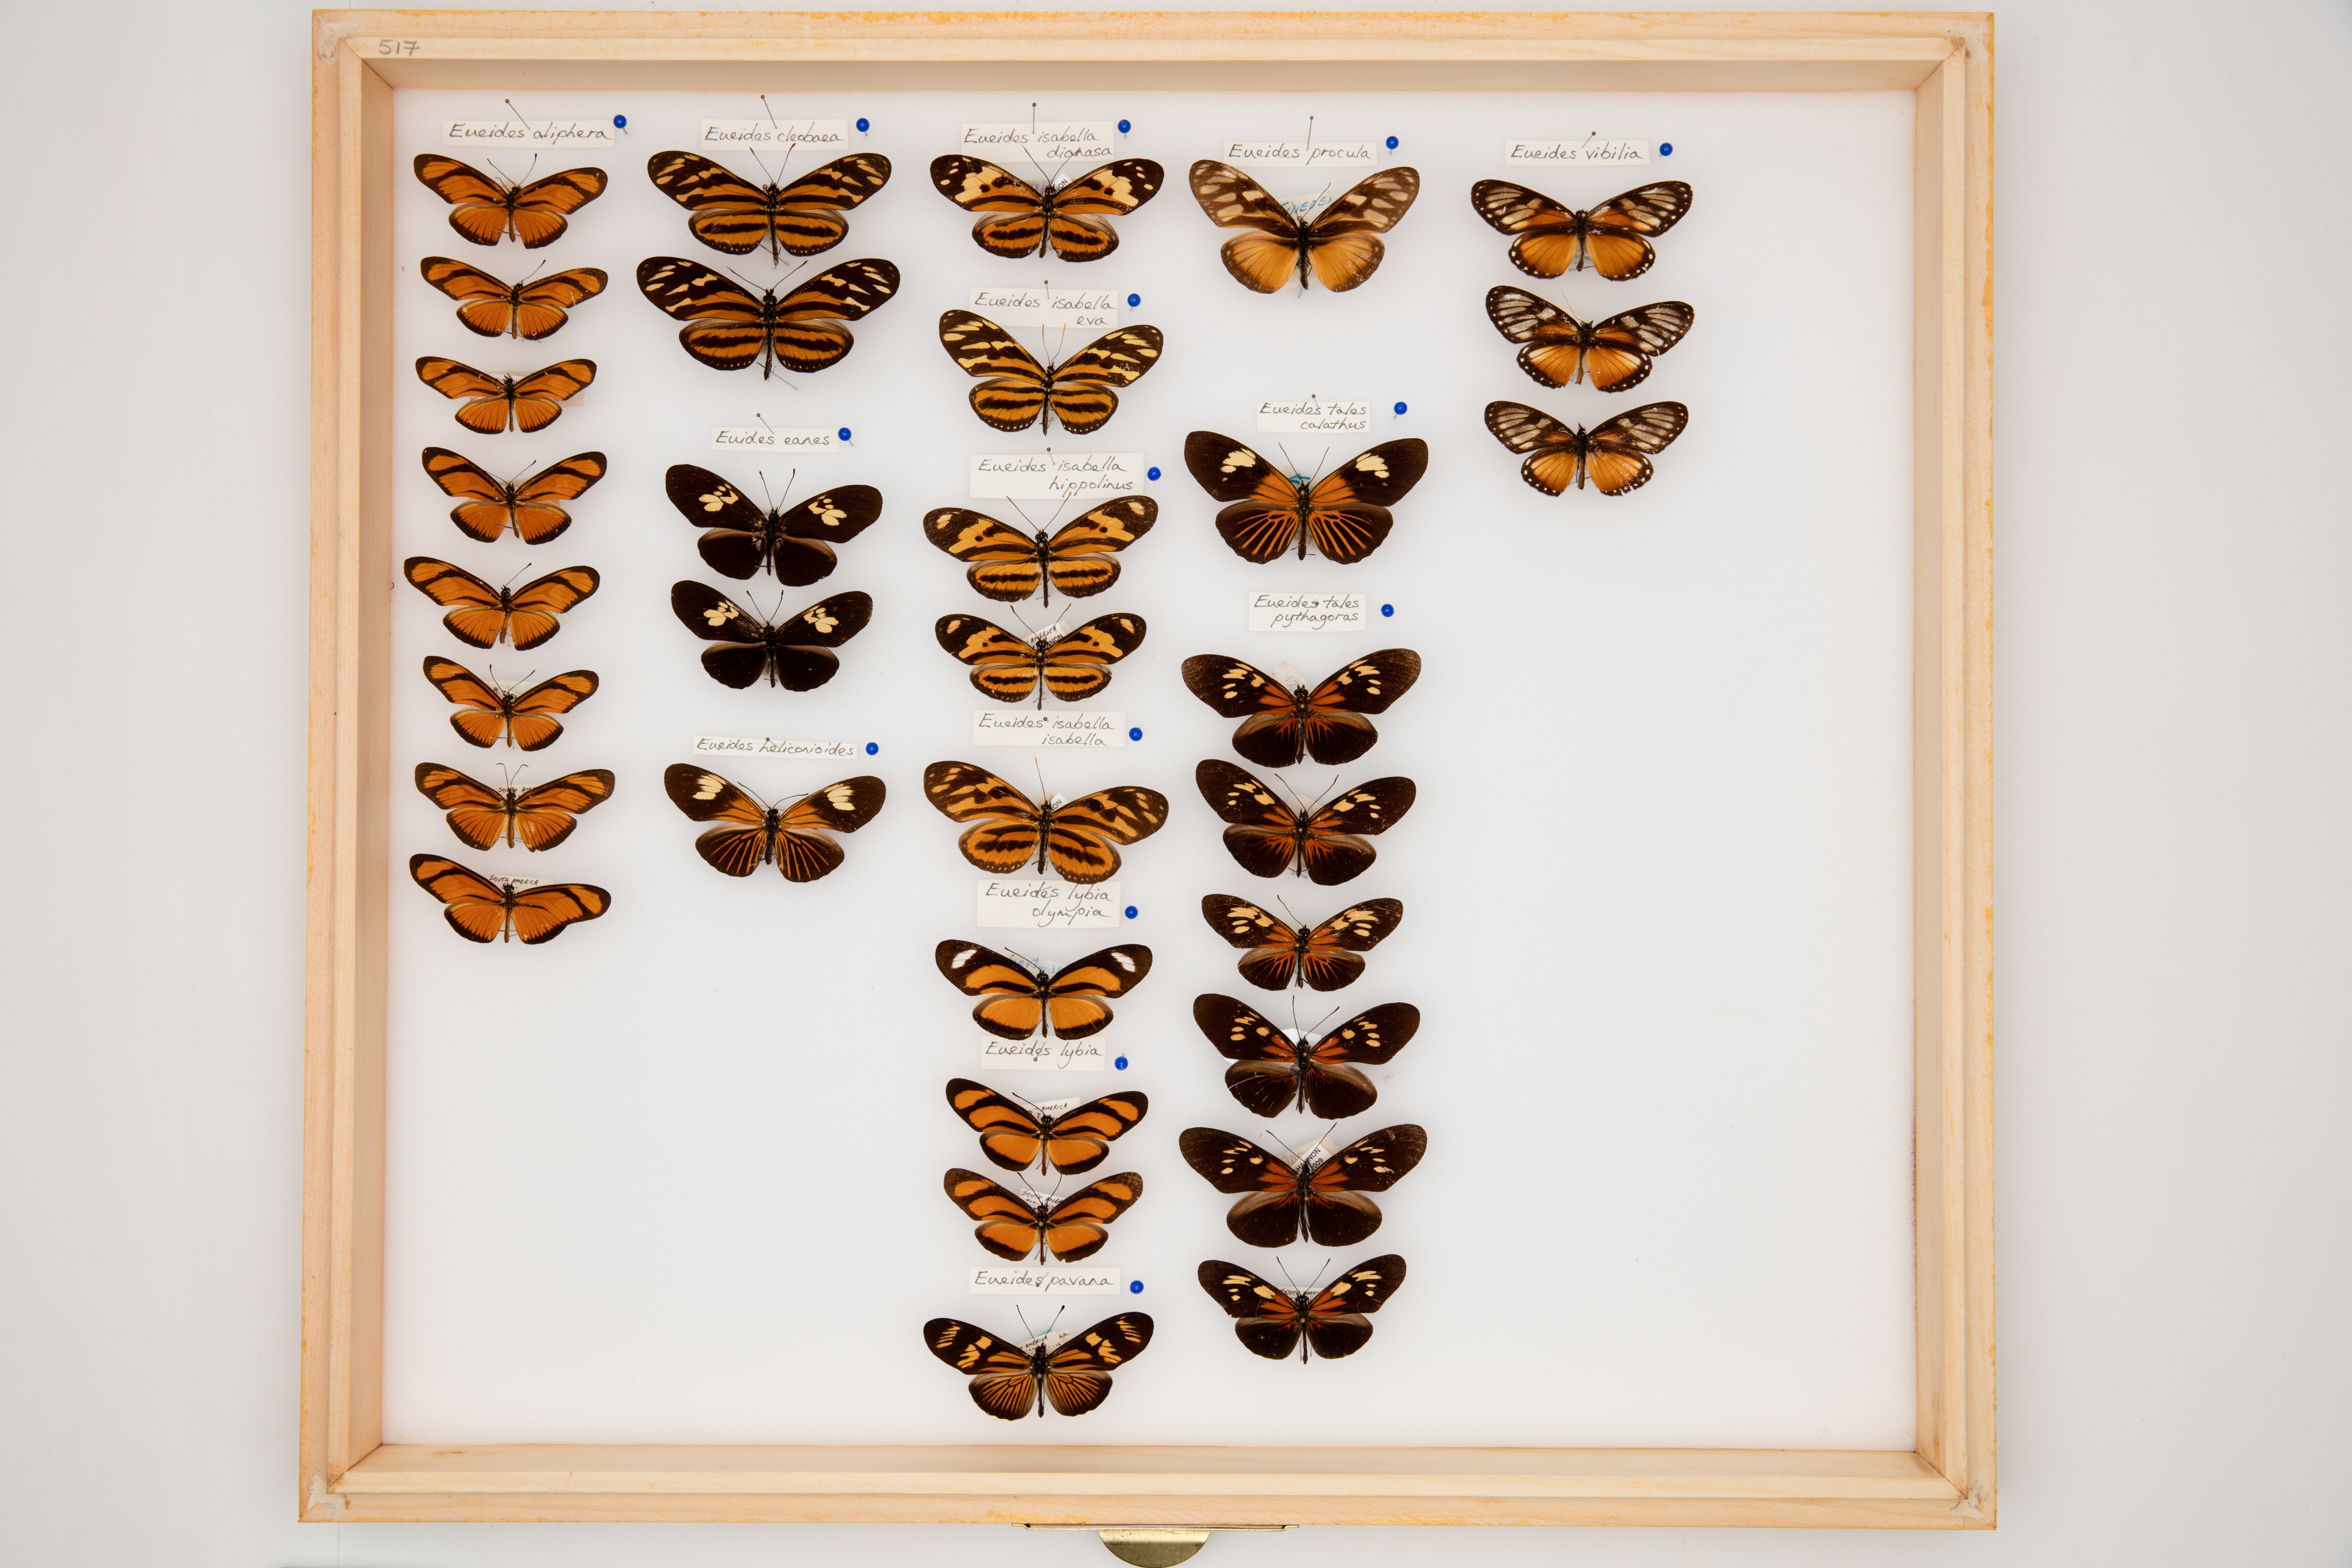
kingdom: Animalia
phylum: Arthropoda
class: Insecta
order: Lepidoptera
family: Nymphalidae
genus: Eueides
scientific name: Eueides procula
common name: Nonpassionate heliconian
